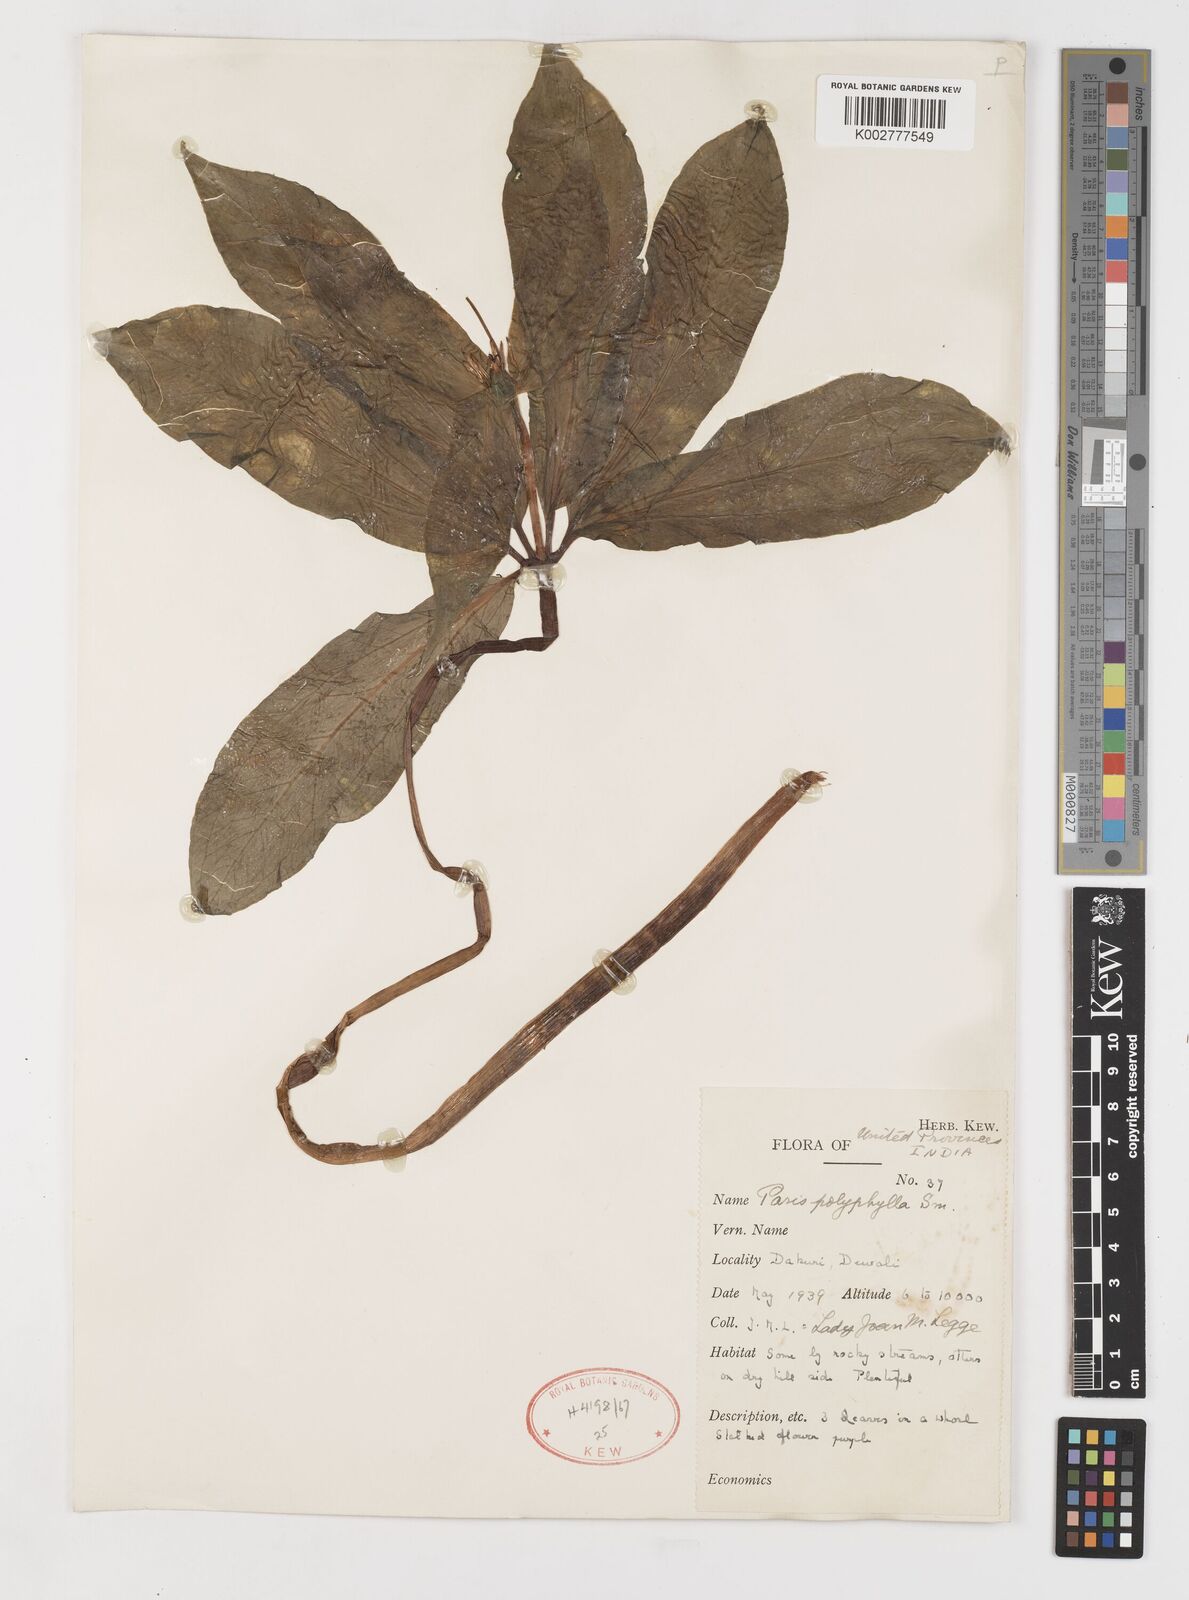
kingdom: Plantae
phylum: Tracheophyta
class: Liliopsida
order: Liliales
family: Melanthiaceae
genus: Paris
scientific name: Paris polyphylla
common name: Love apple
